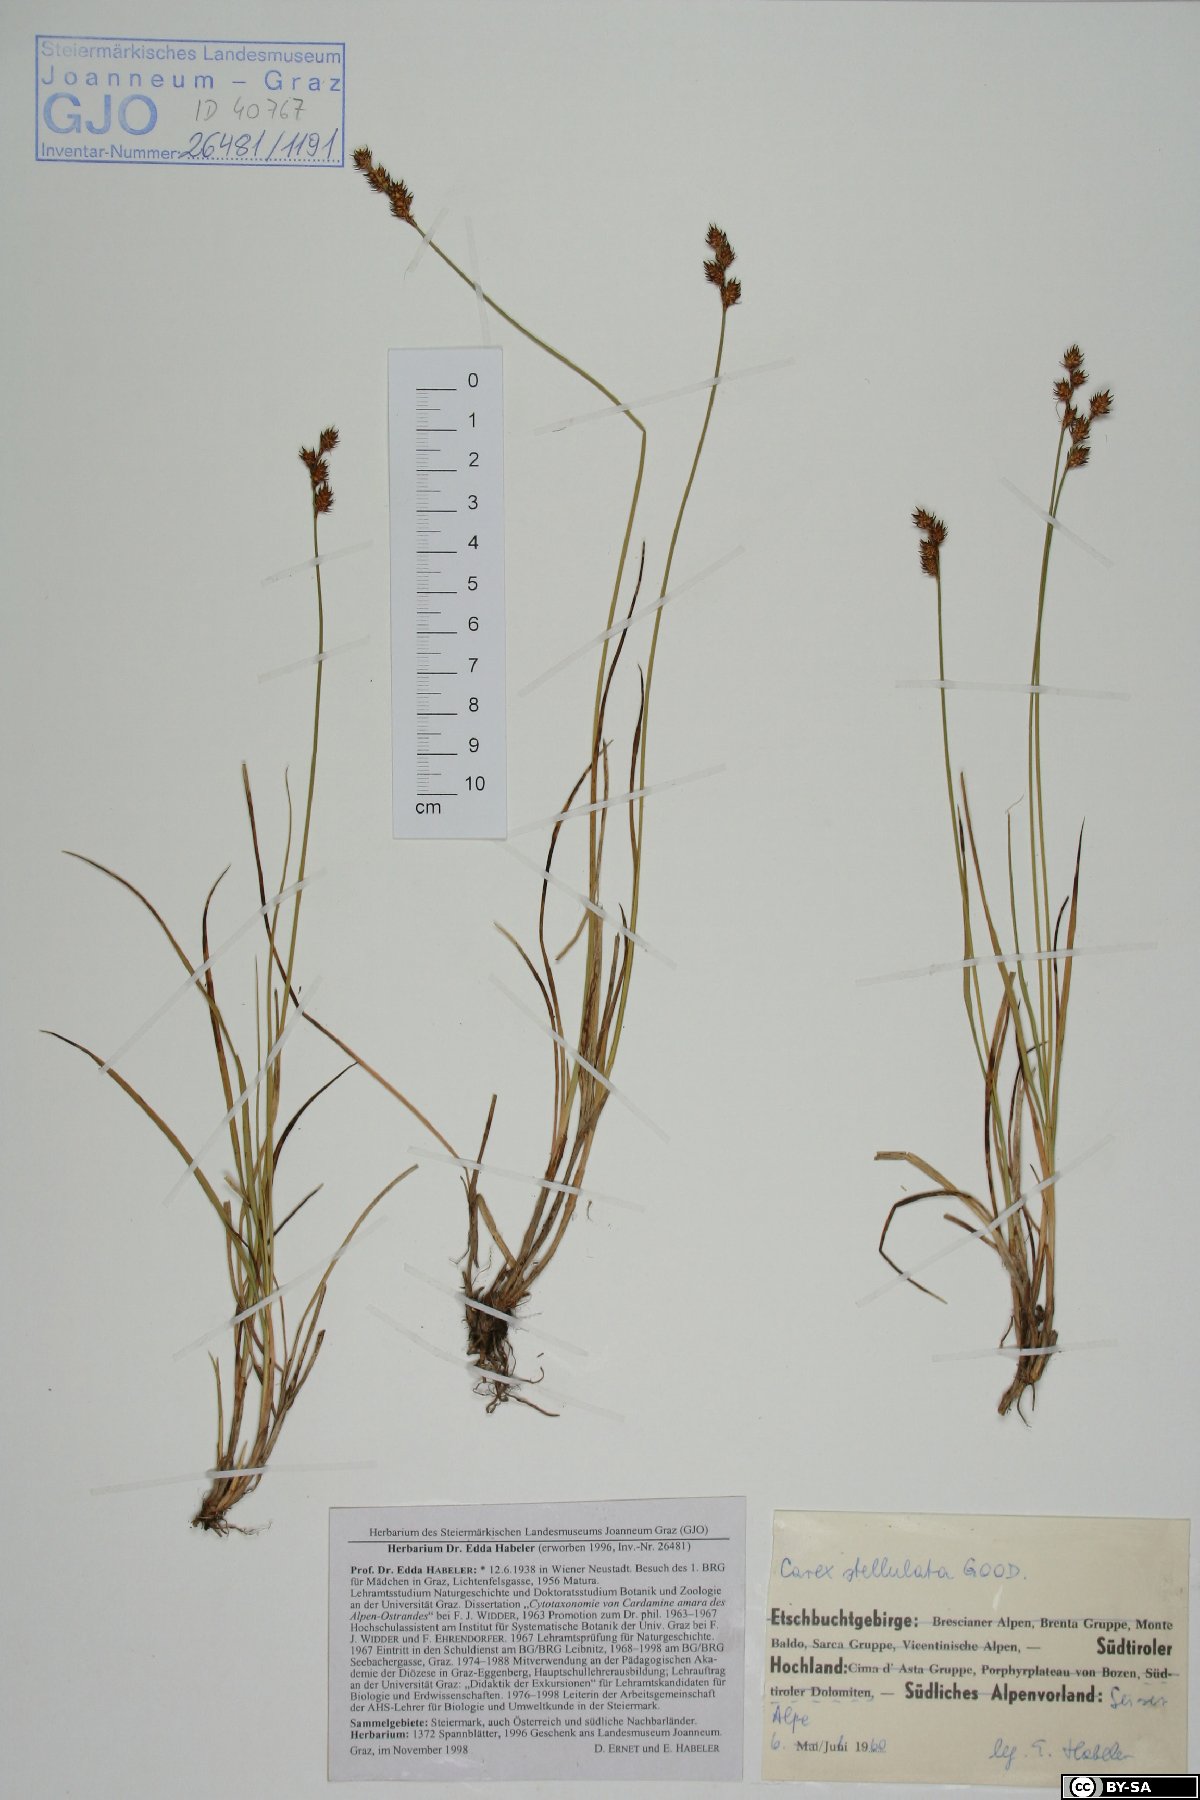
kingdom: Plantae
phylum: Tracheophyta
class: Liliopsida
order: Poales
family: Cyperaceae
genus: Carex
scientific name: Carex echinata
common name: Star sedge
